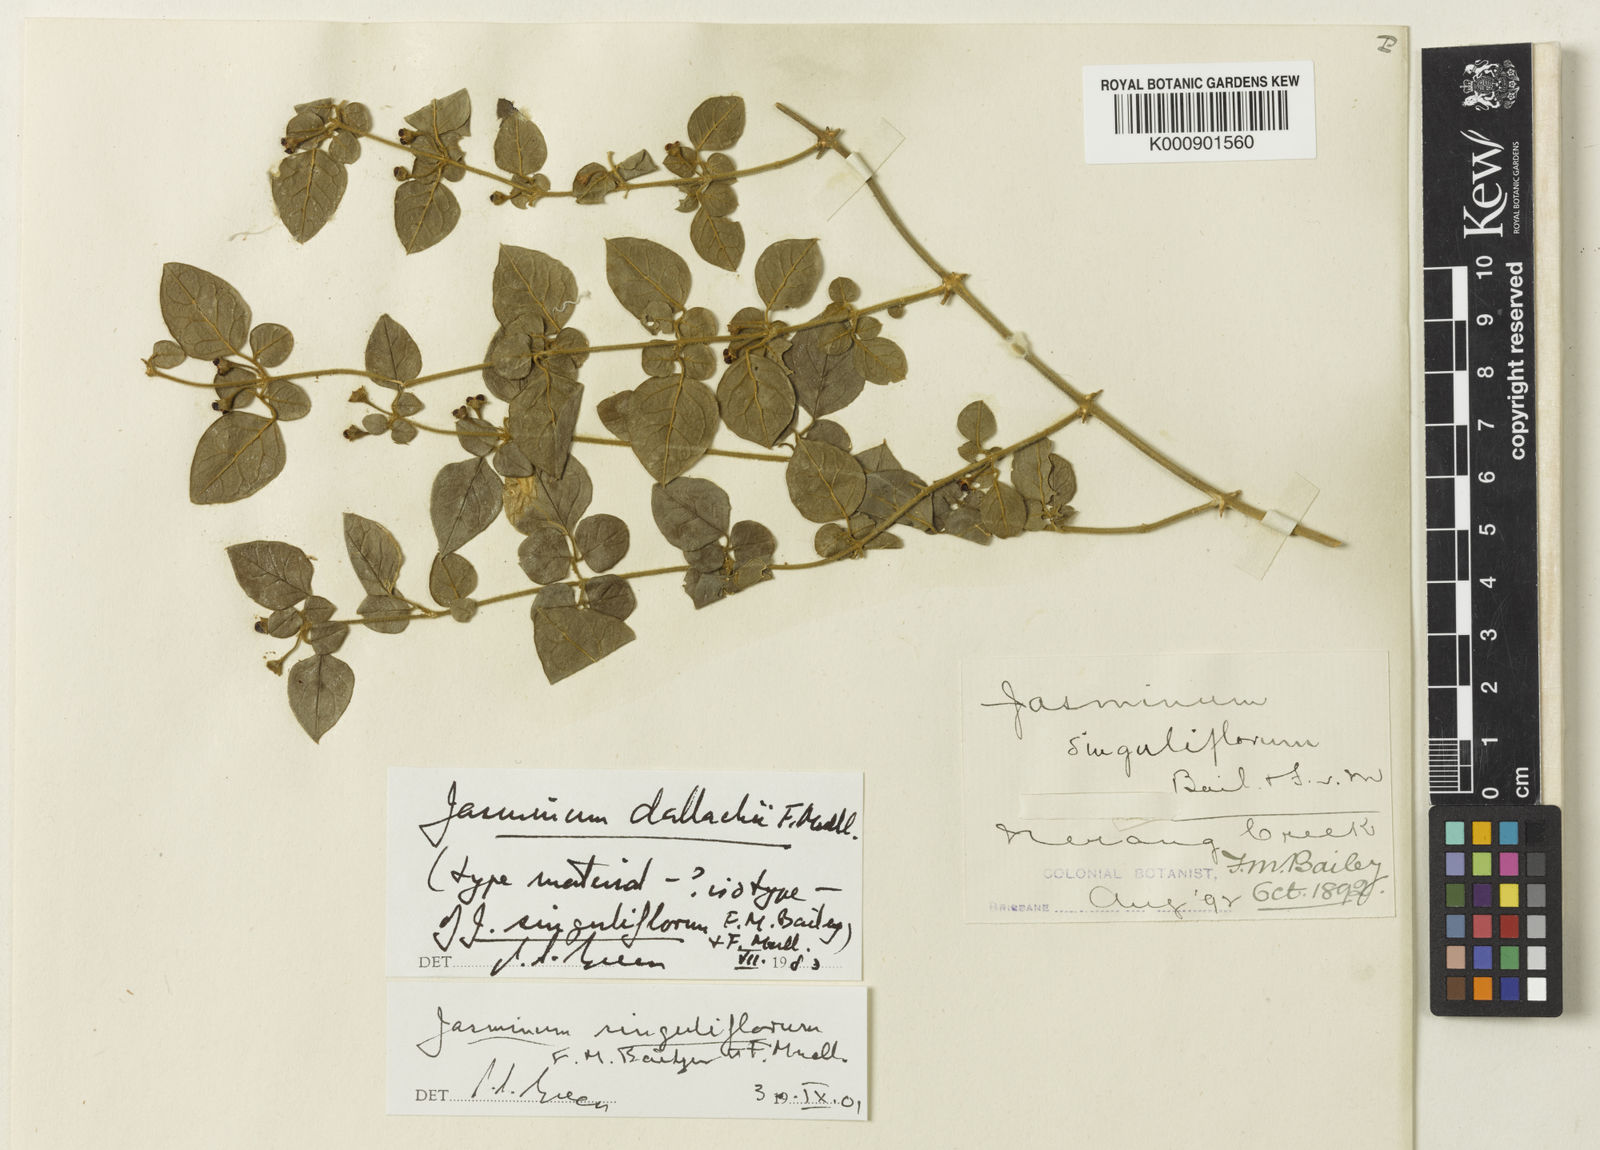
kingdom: Plantae
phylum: Tracheophyta
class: Magnoliopsida
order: Lamiales
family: Oleaceae
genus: Jasminum
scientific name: Jasminum dallachyi
